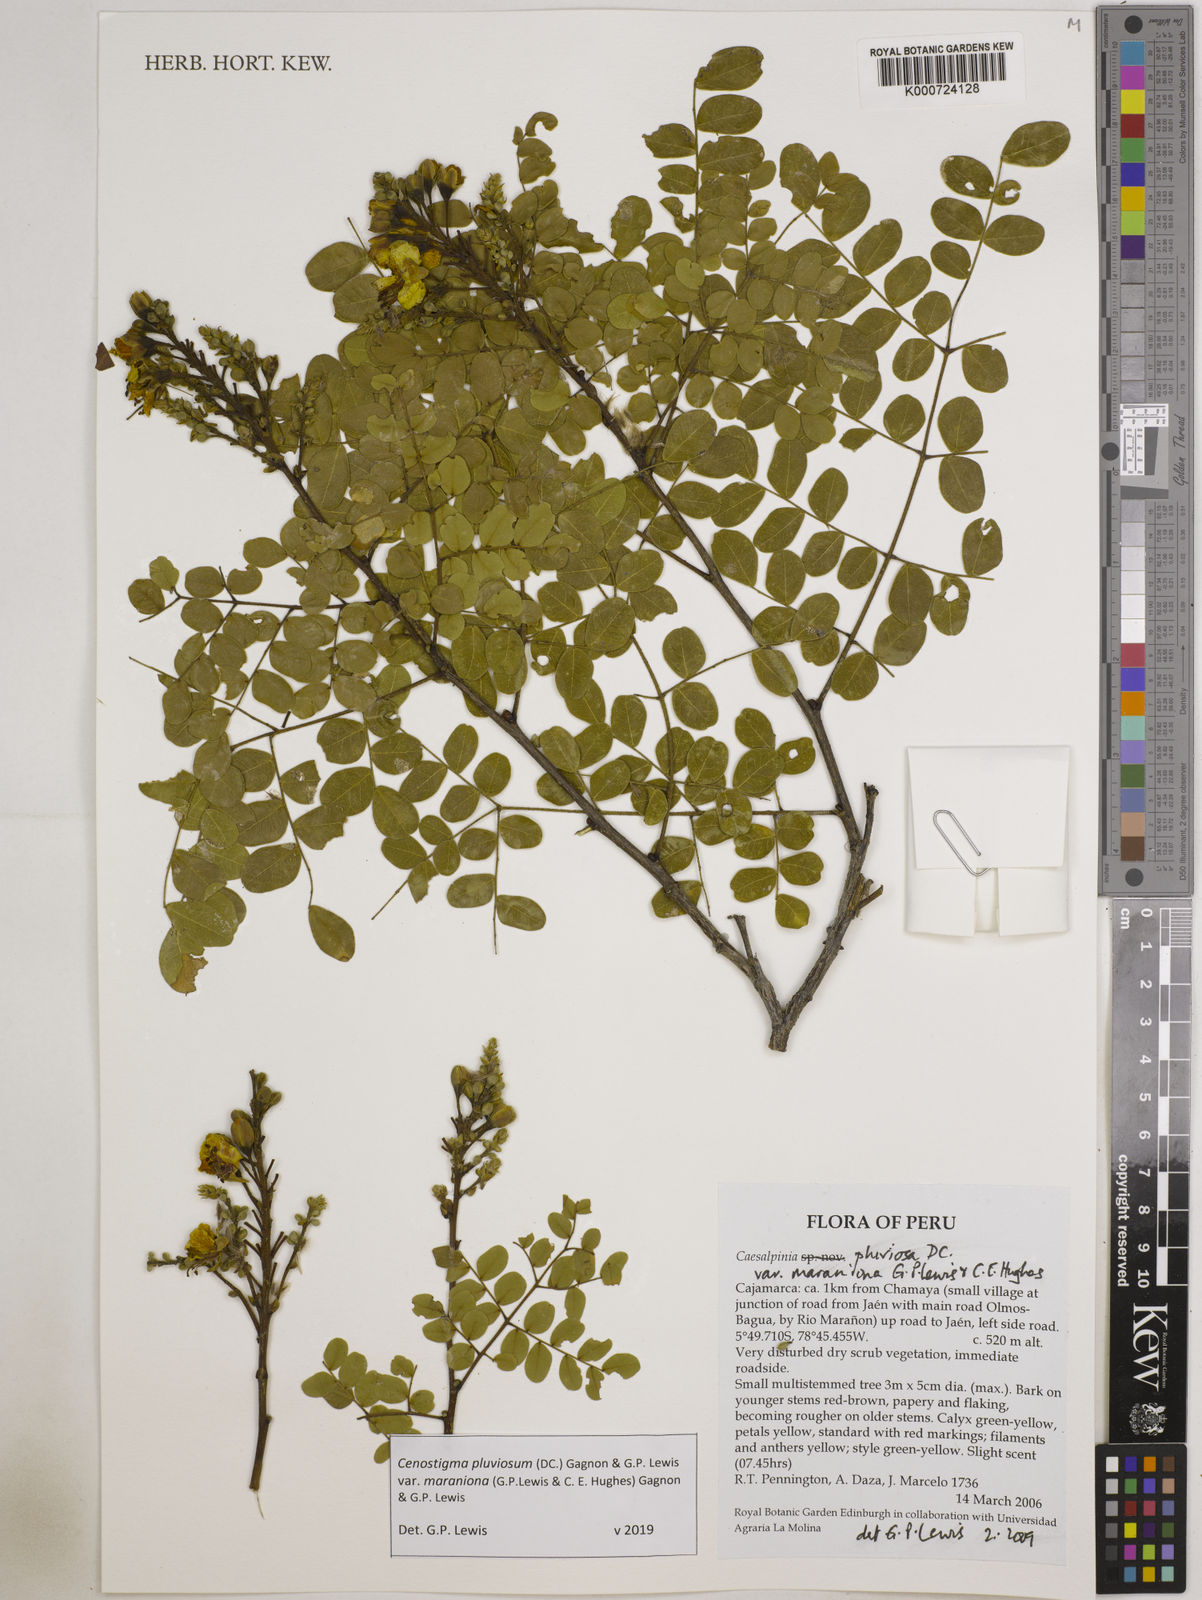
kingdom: Plantae
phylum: Tracheophyta
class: Magnoliopsida
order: Fabales
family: Fabaceae
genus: Cenostigma
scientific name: Cenostigma pluviosum
